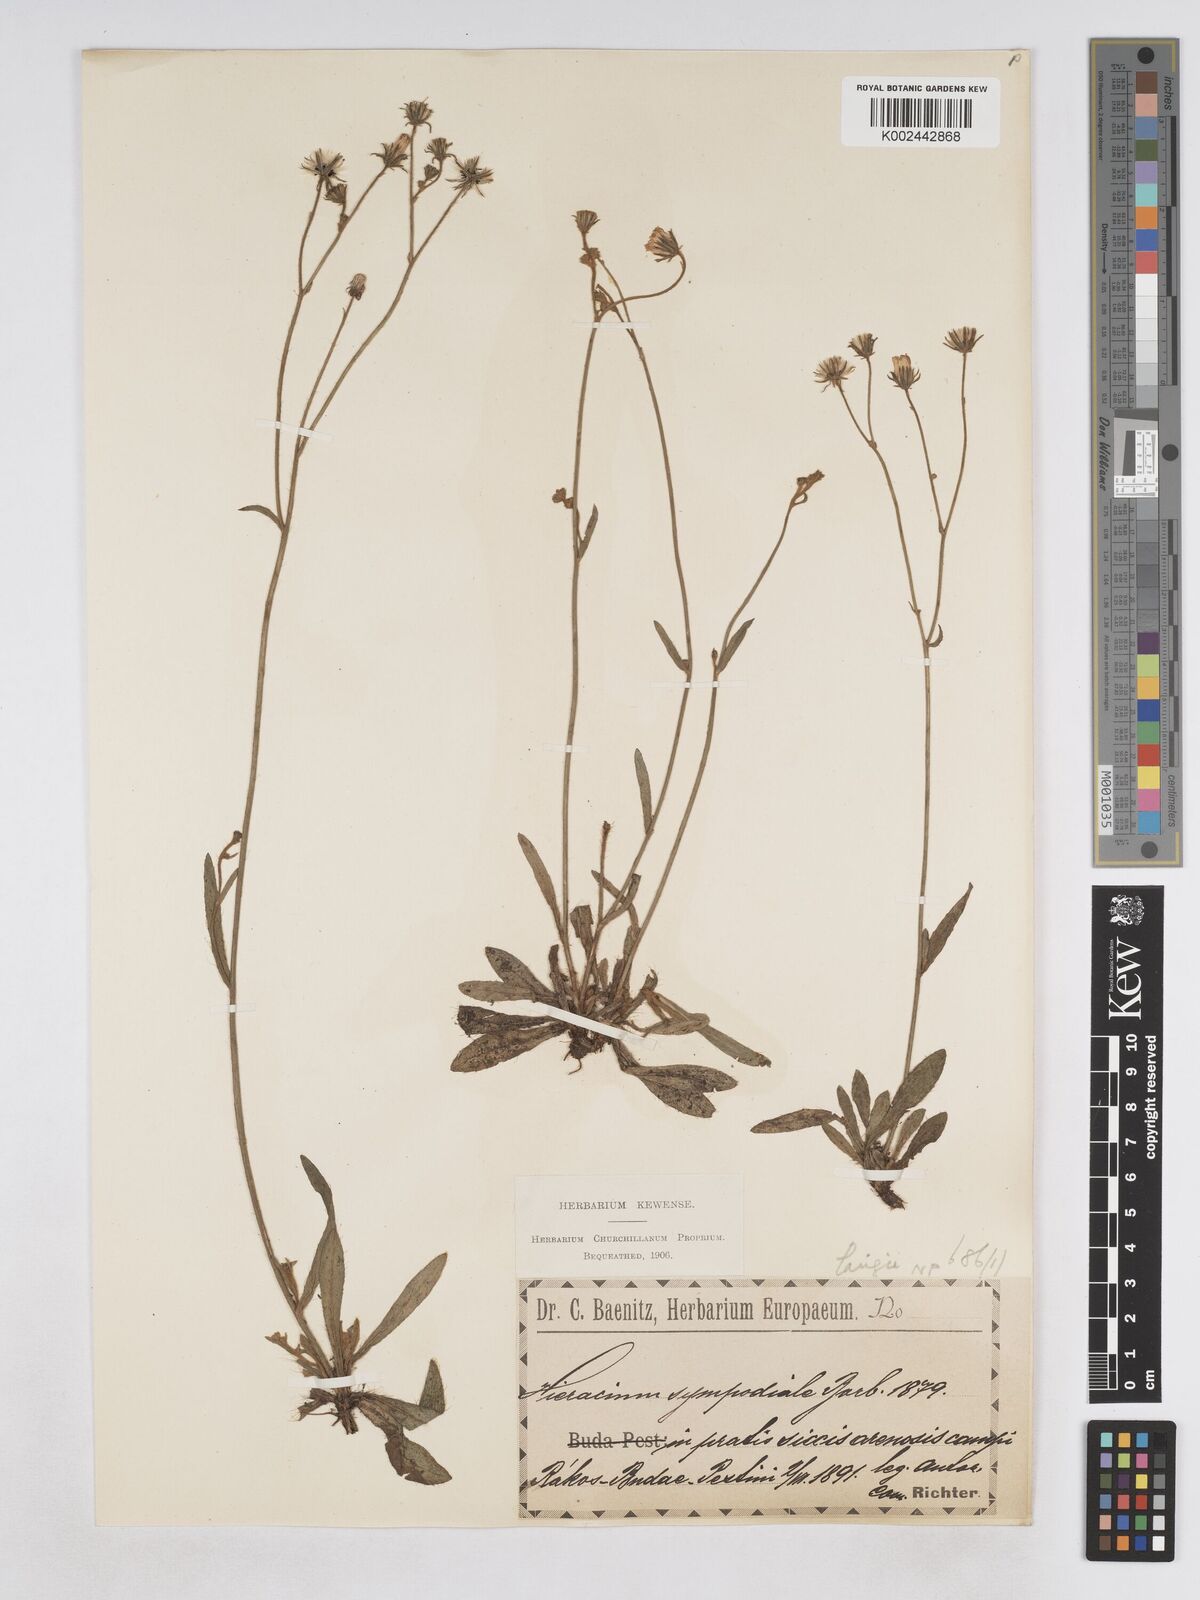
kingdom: Plantae
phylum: Tracheophyta
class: Magnoliopsida
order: Asterales
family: Asteraceae
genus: Pilosella
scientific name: Pilosella bifurca
